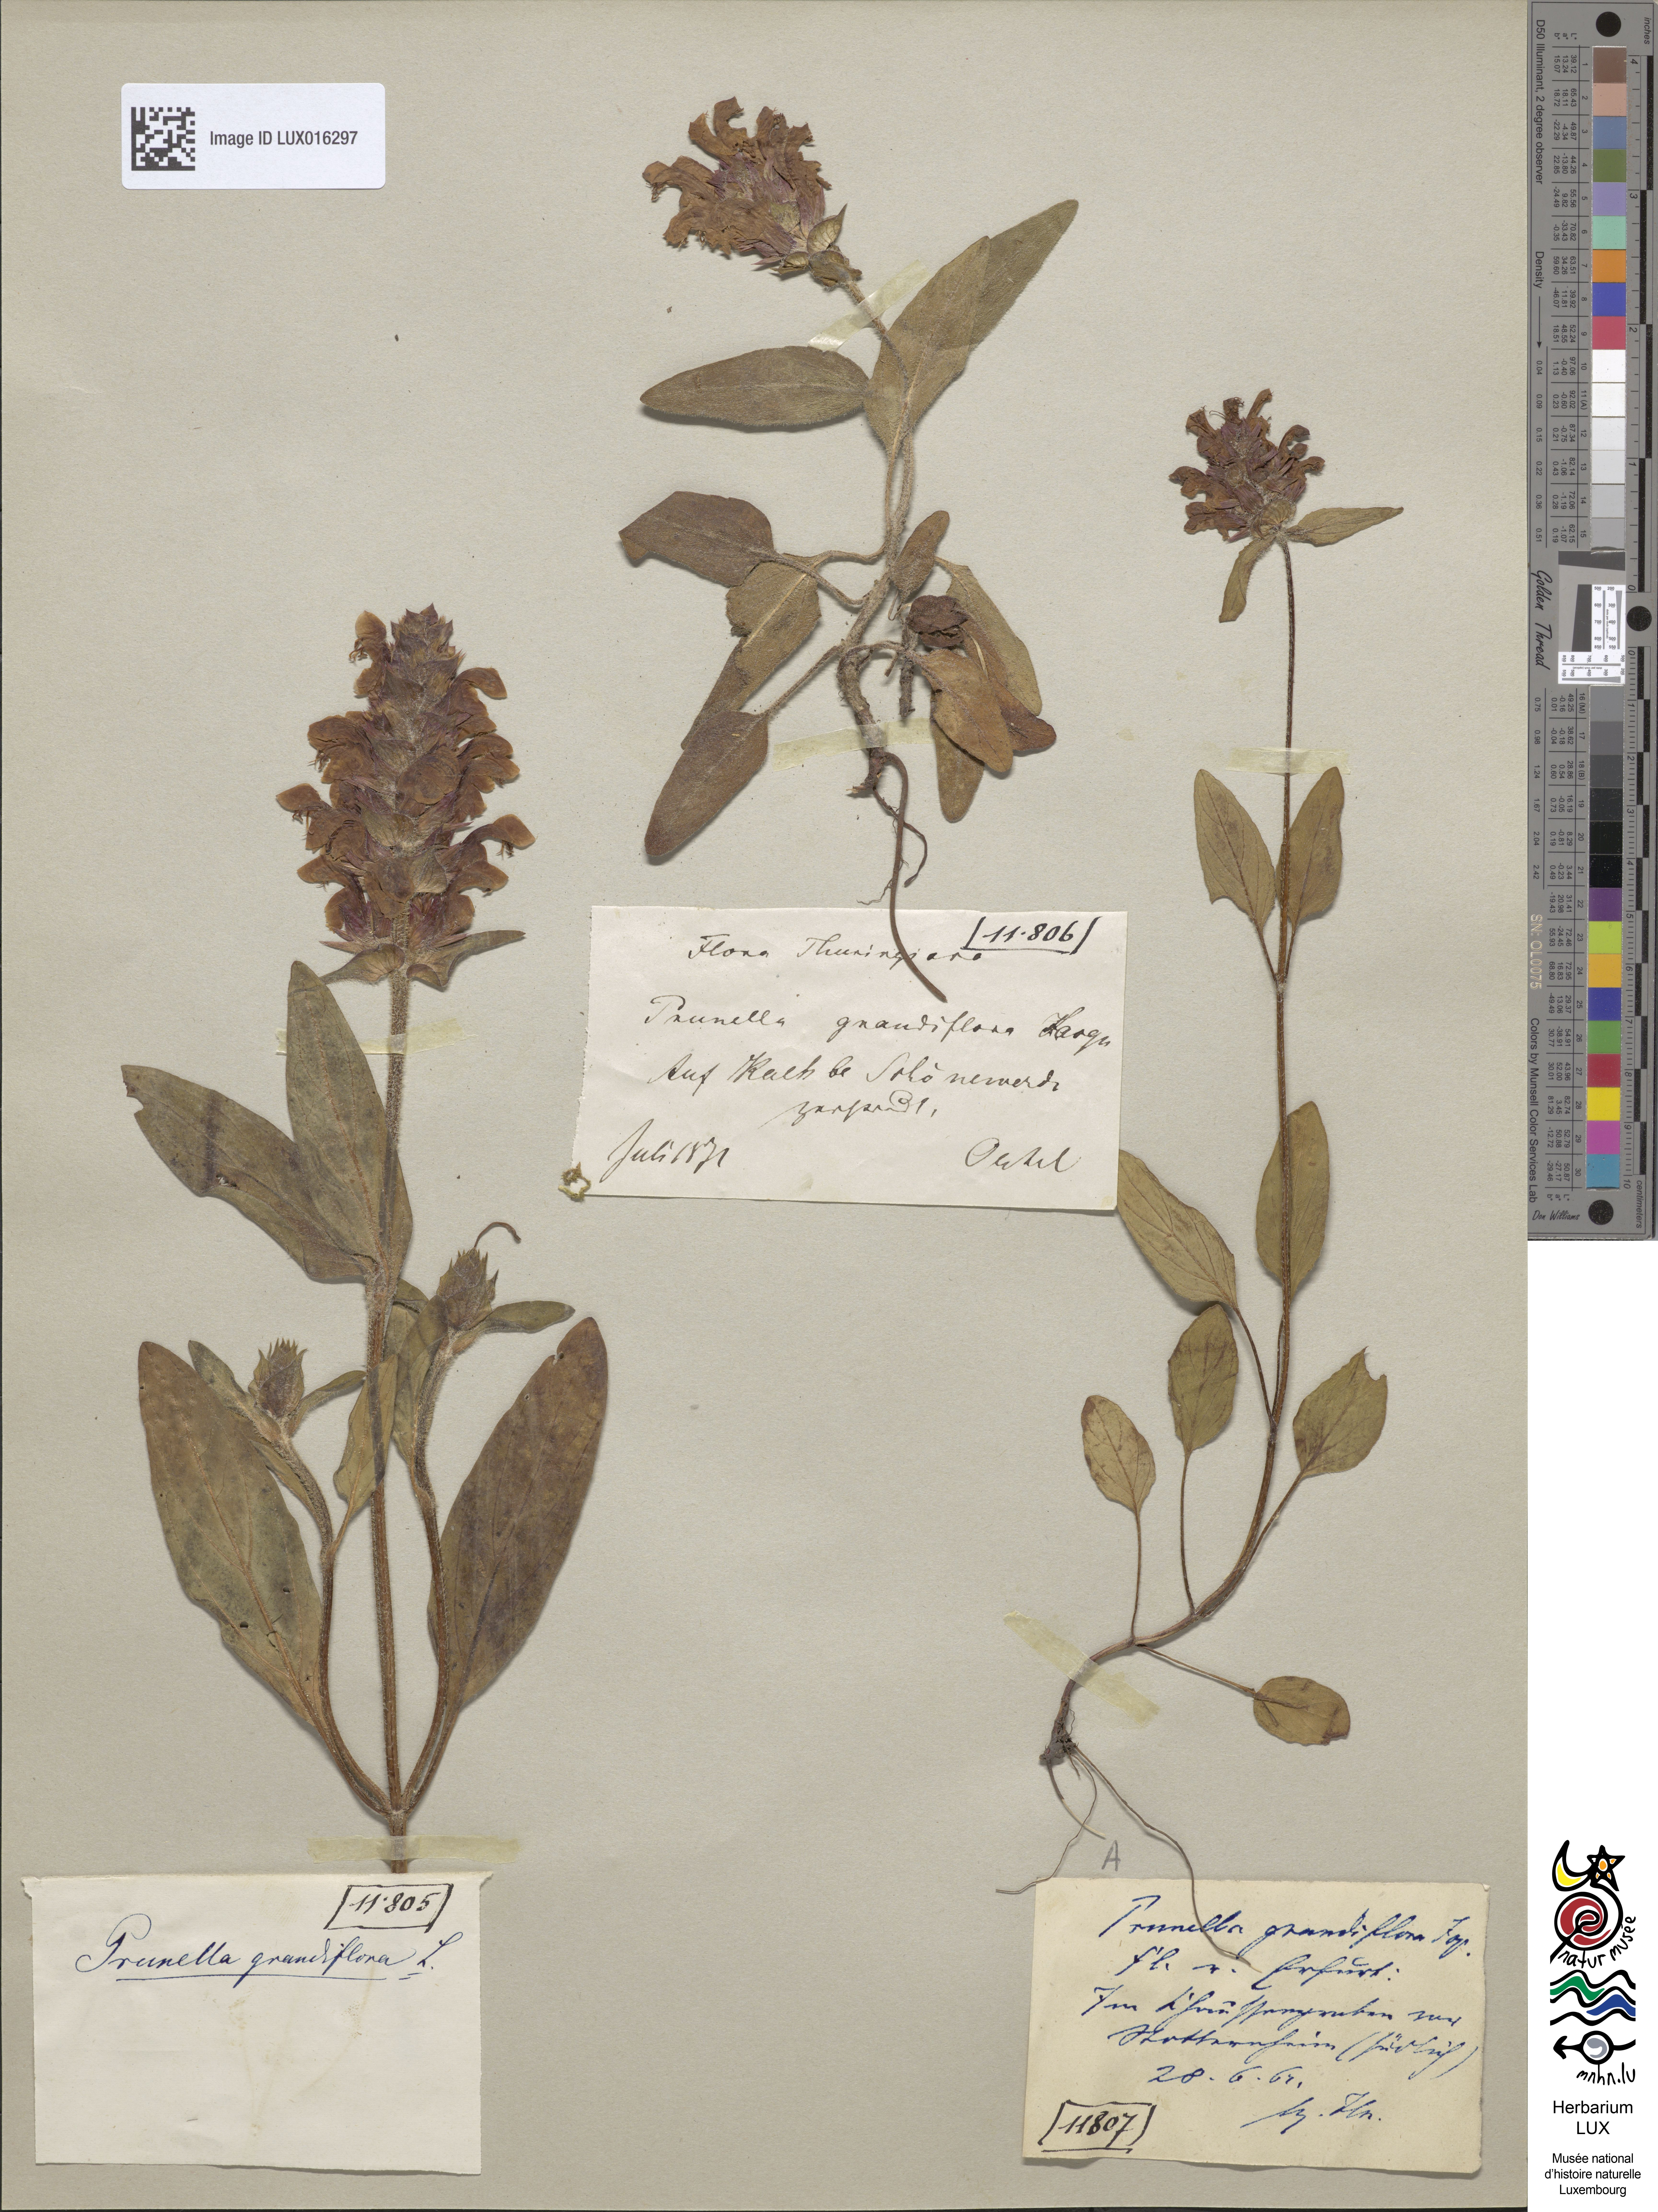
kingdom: Plantae
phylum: Tracheophyta
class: Magnoliopsida
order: Lamiales
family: Lamiaceae
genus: Prunella
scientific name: Prunella grandiflora
